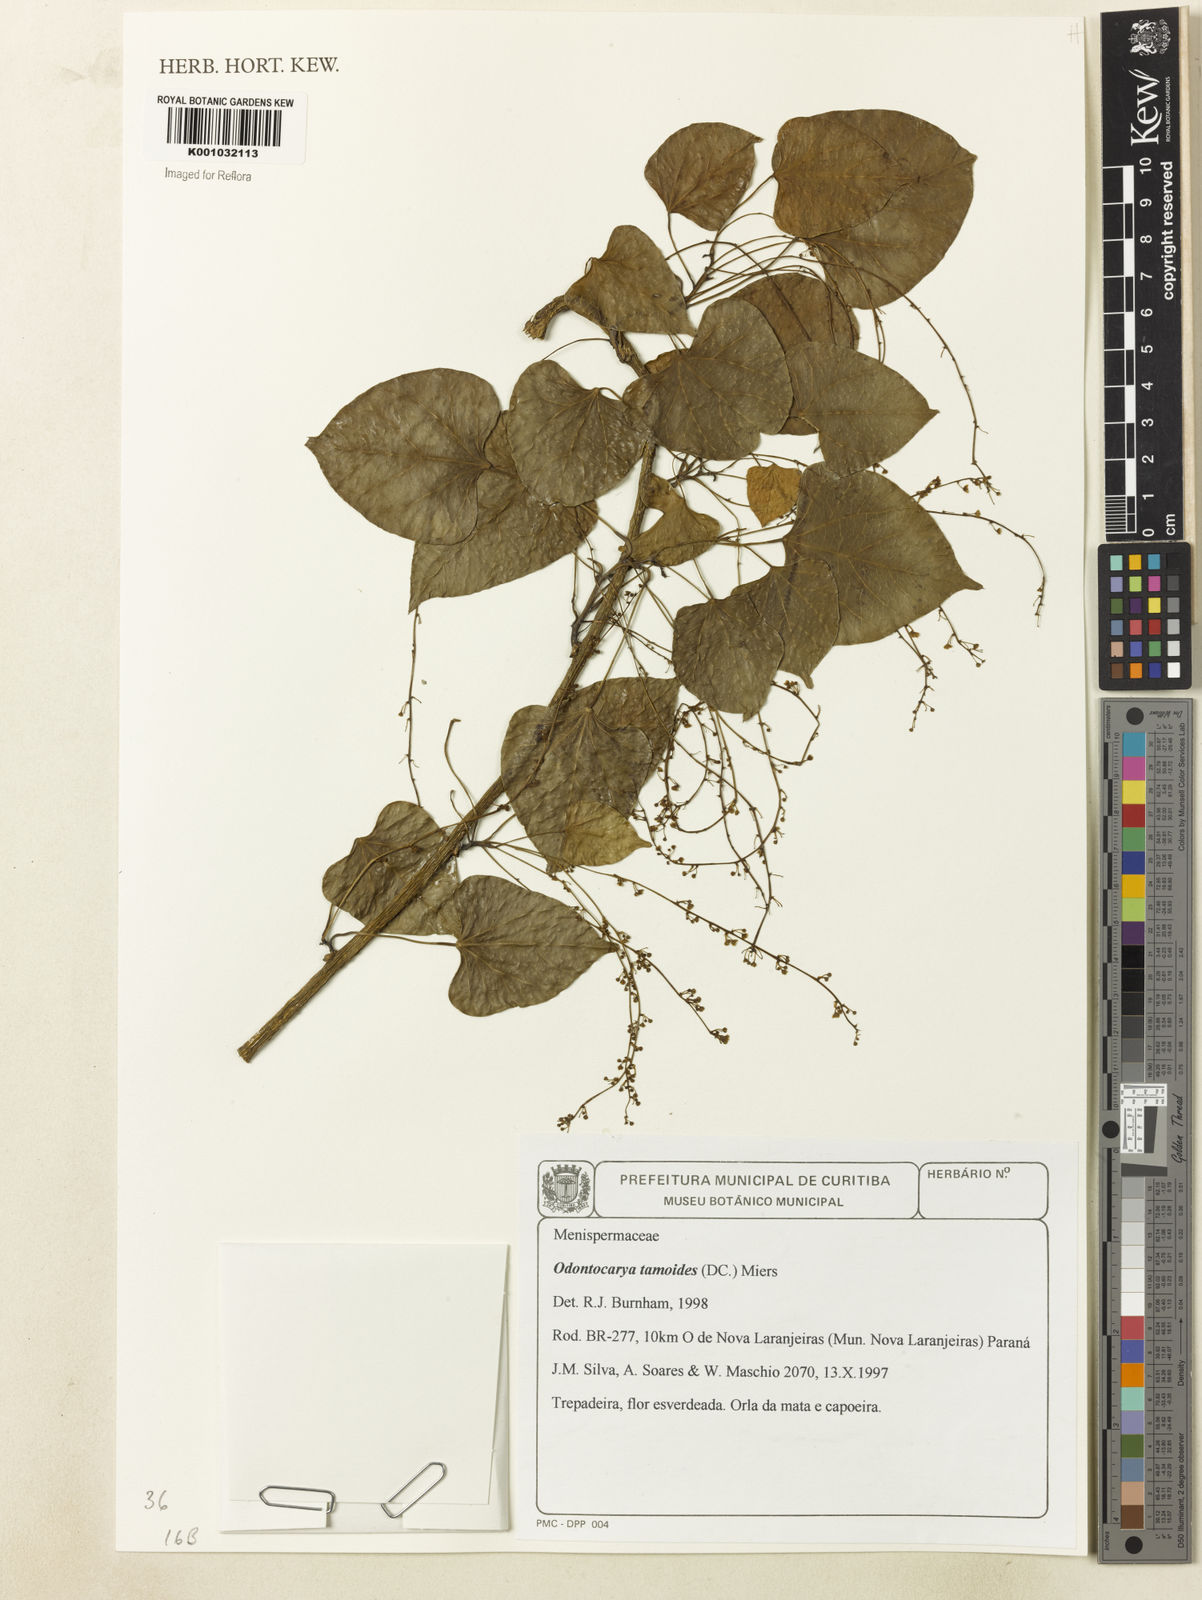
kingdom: Plantae
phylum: Tracheophyta
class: Magnoliopsida
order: Ranunculales
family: Menispermaceae
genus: Odontocarya
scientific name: Odontocarya tamoides
